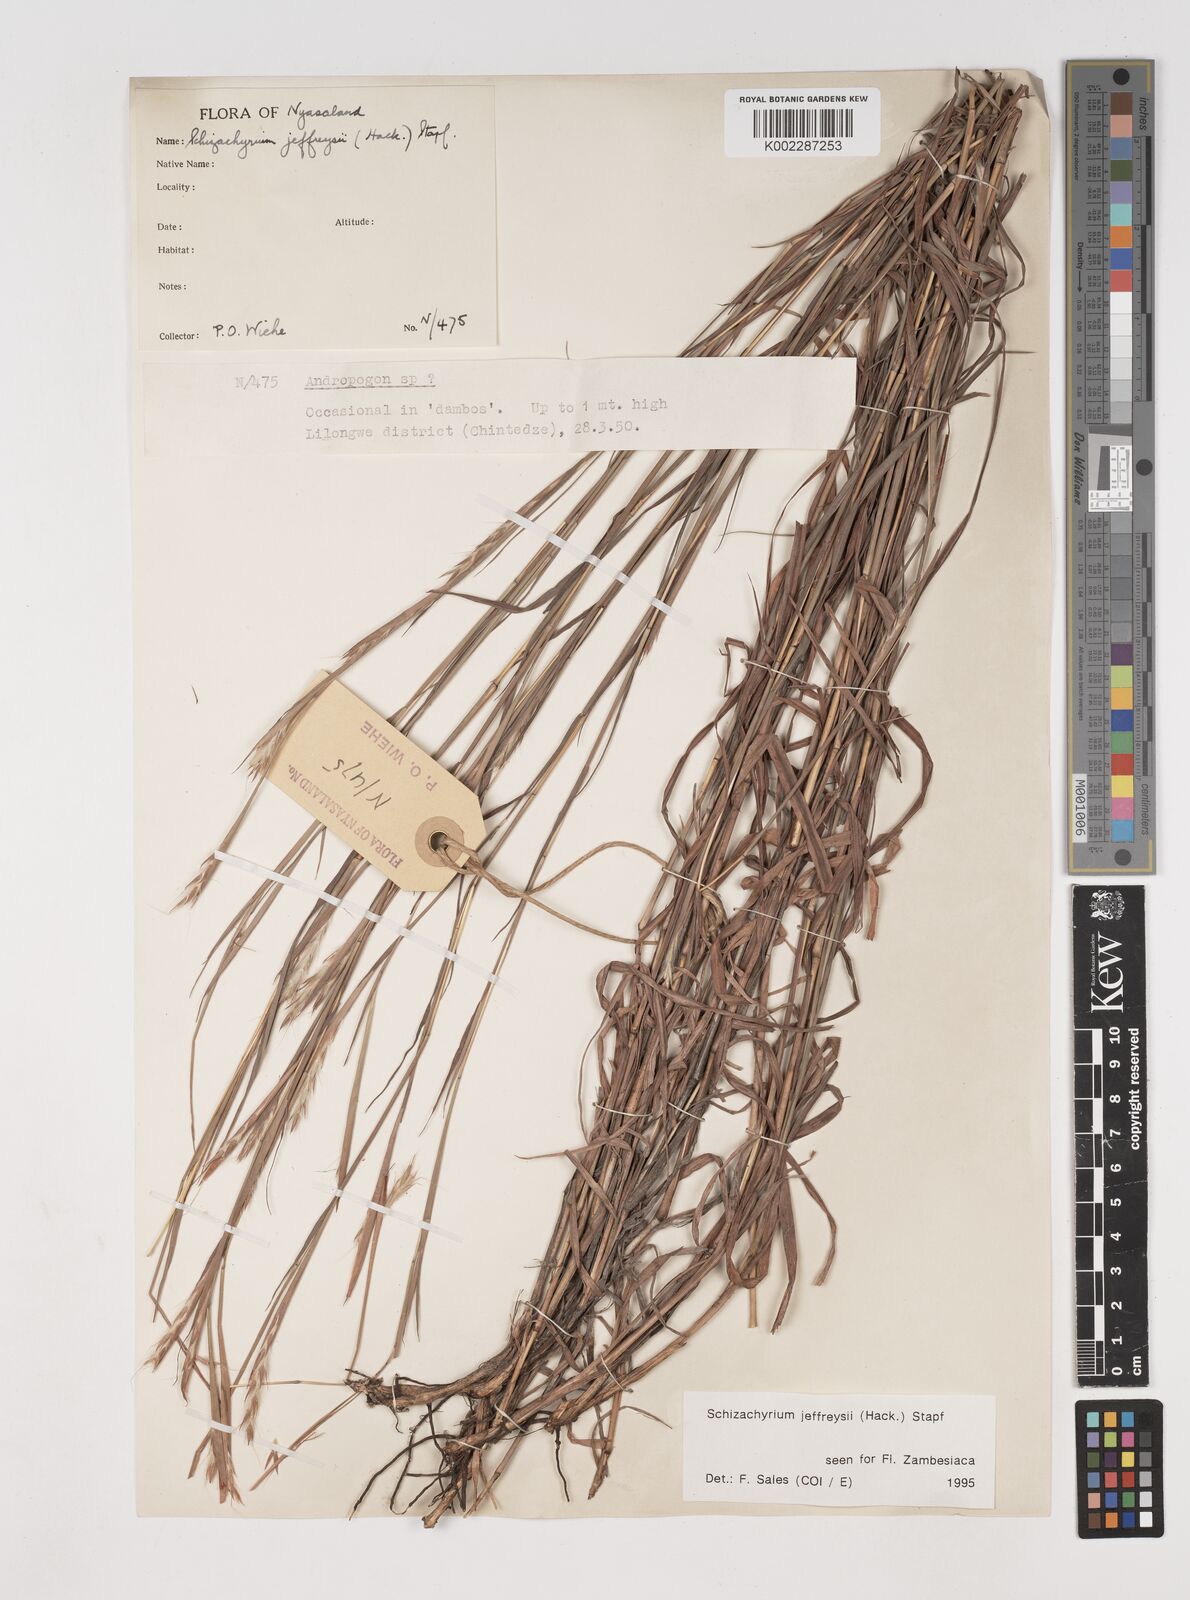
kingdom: Plantae
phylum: Tracheophyta
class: Liliopsida
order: Poales
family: Poaceae
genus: Schizachyrium
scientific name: Schizachyrium jeffreysii
